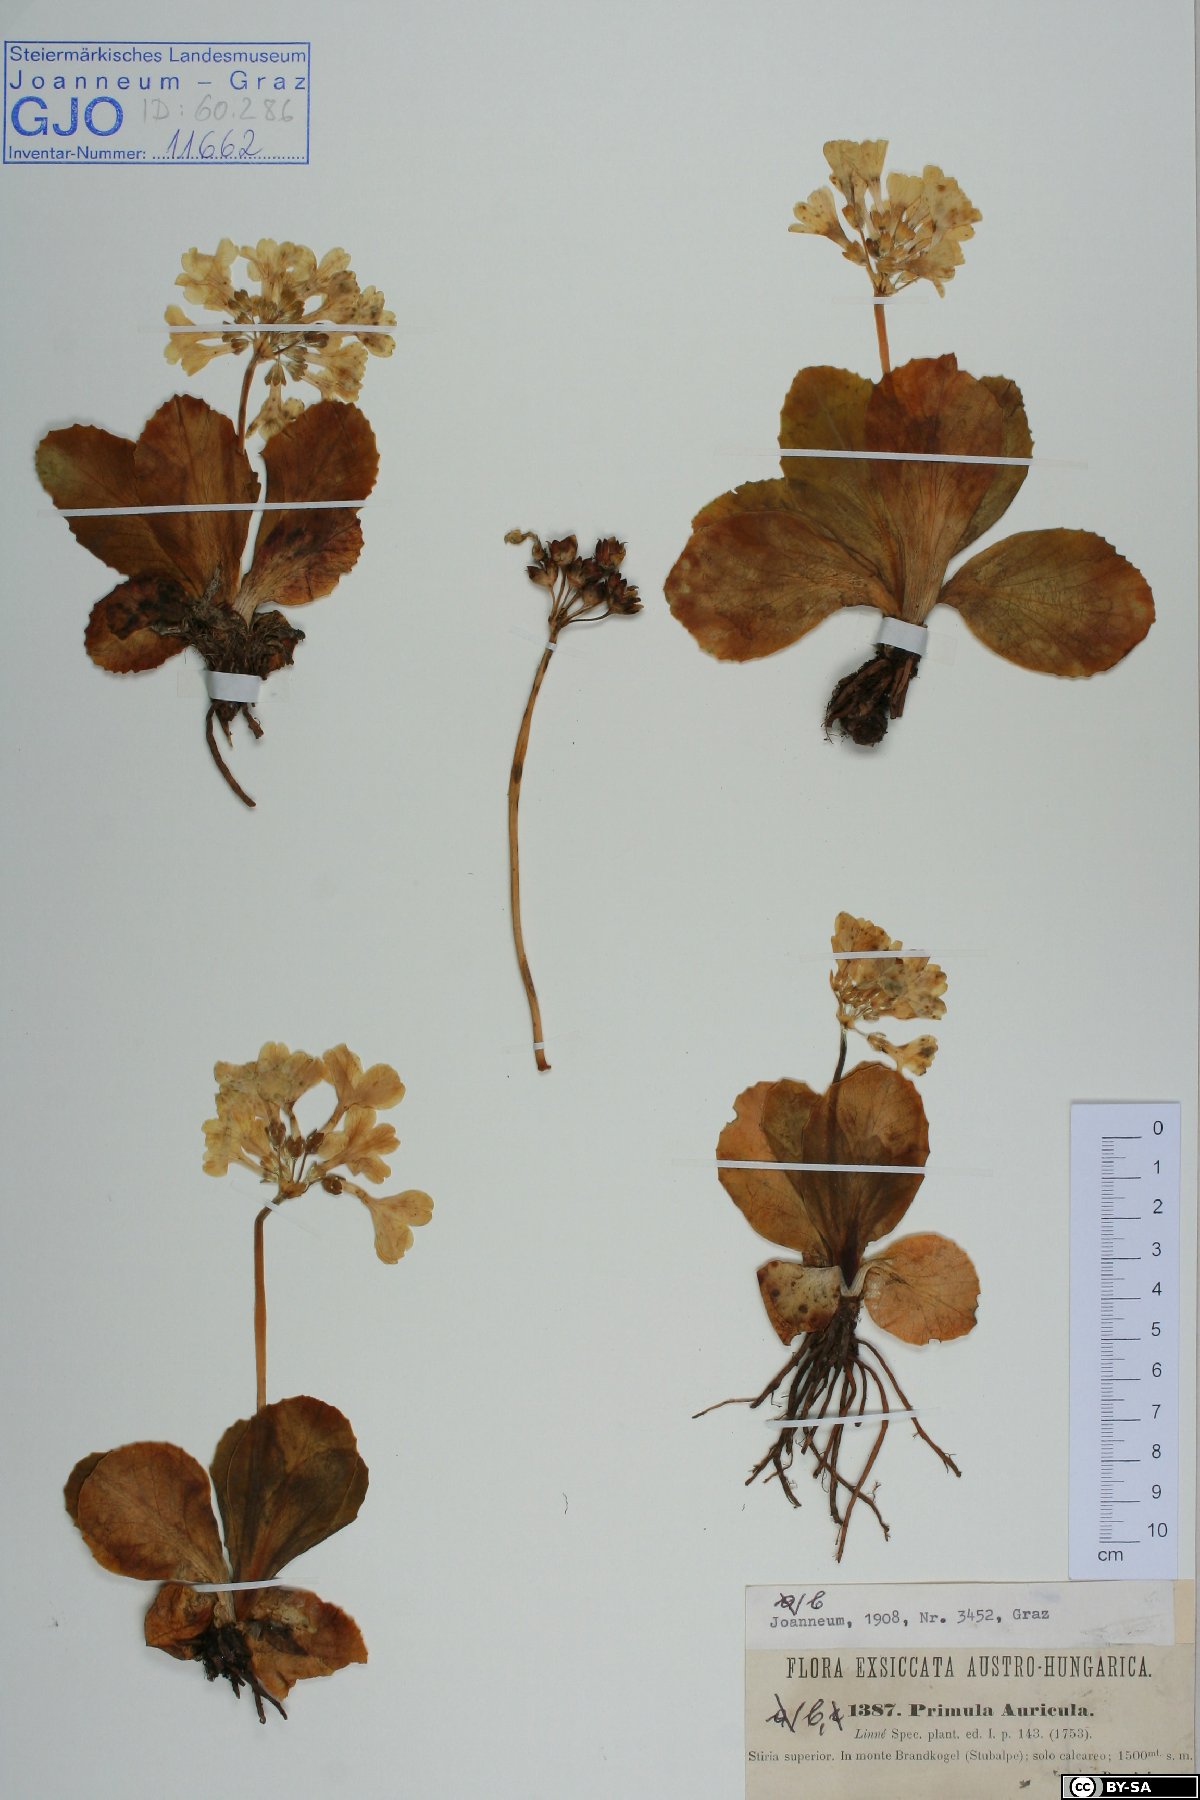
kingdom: Plantae
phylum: Tracheophyta
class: Magnoliopsida
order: Ericales
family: Primulaceae
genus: Primula
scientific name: Primula auricula
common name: Auricula
